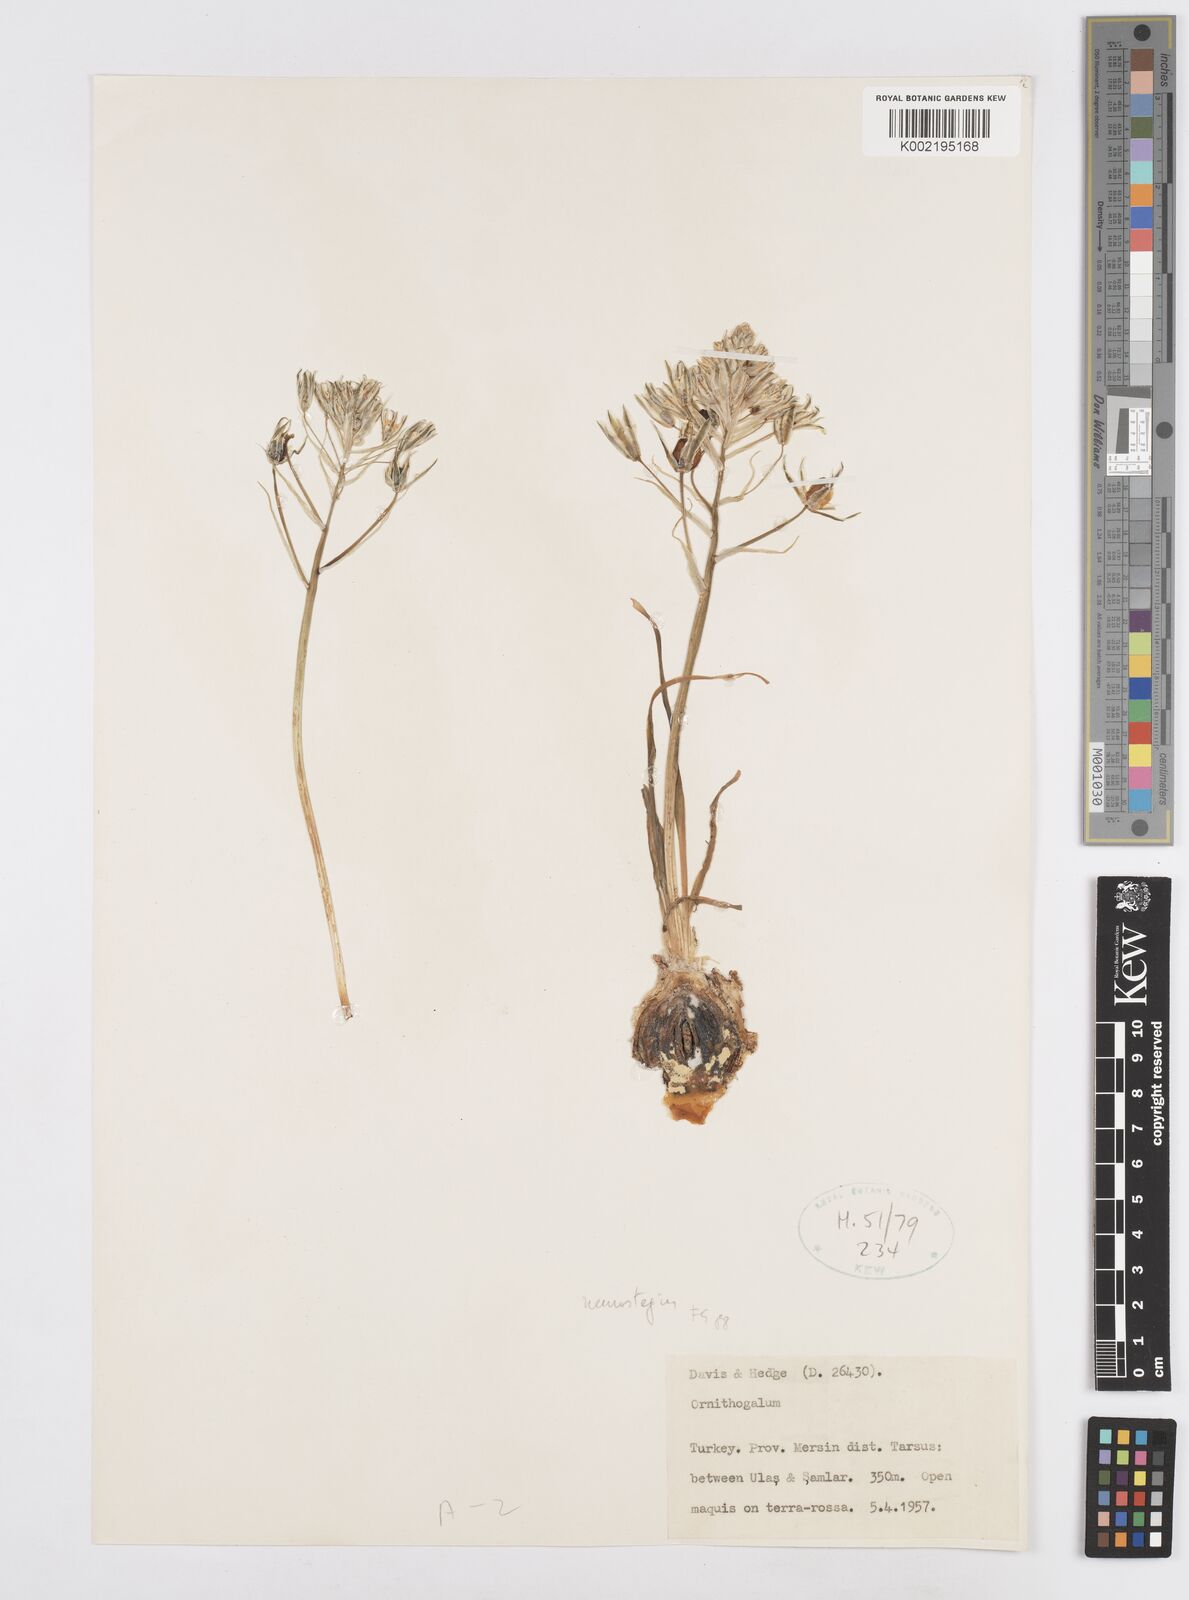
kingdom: Plantae
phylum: Tracheophyta
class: Liliopsida
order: Asparagales
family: Asparagaceae
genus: Ornithogalum
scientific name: Ornithogalum neurostegium
